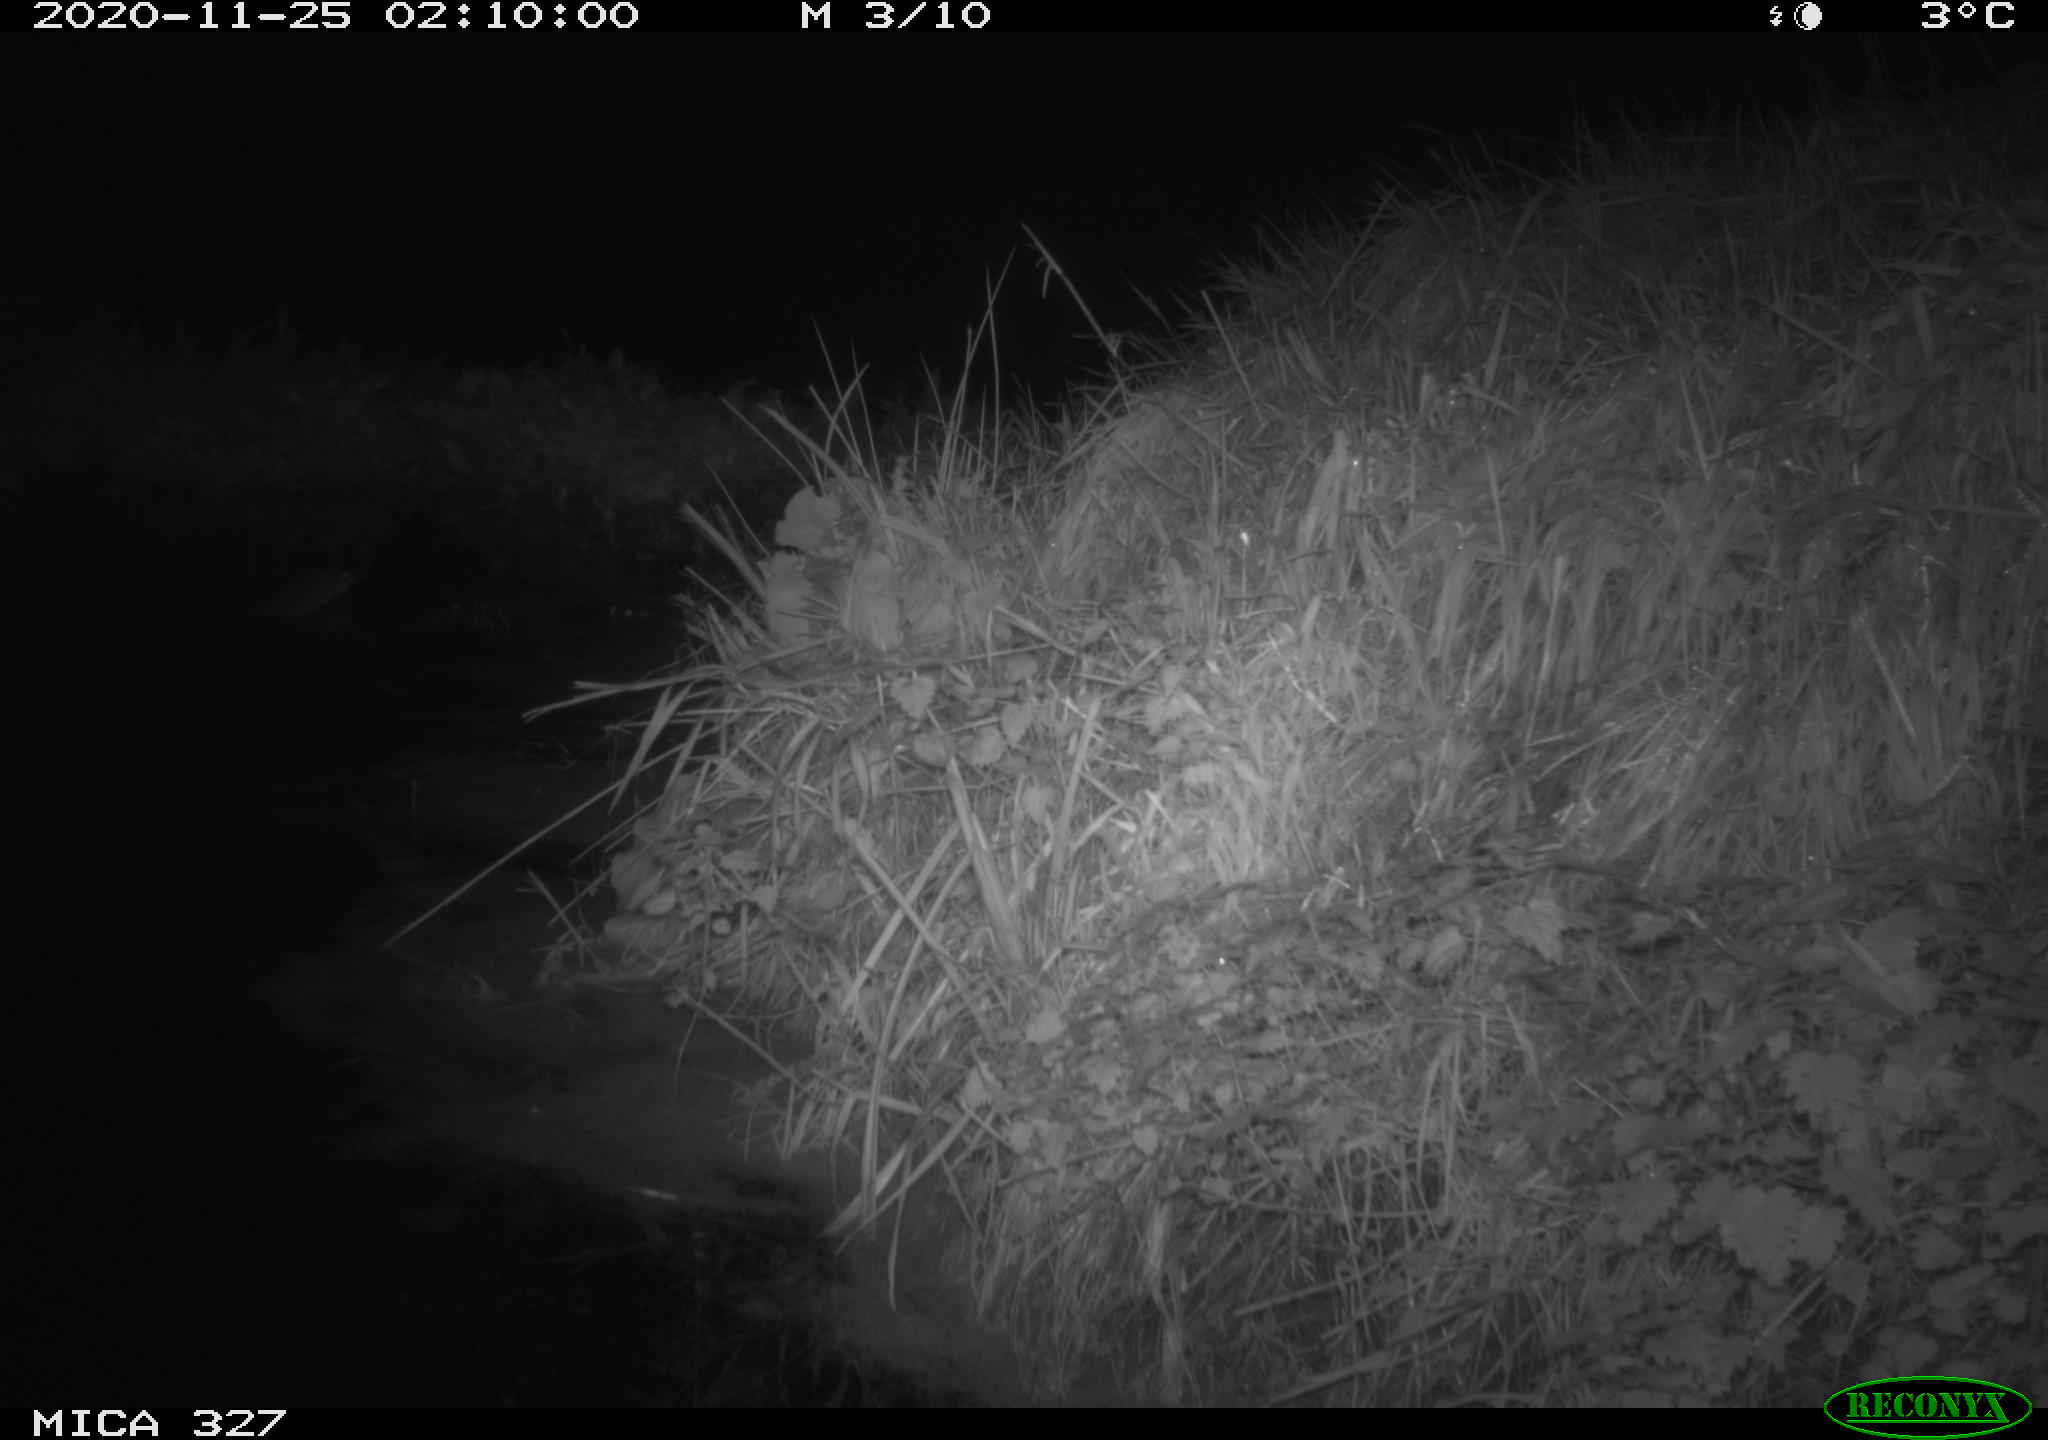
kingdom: Animalia
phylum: Chordata
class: Mammalia
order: Rodentia
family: Myocastoridae
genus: Myocastor
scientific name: Myocastor coypus
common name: Coypu
